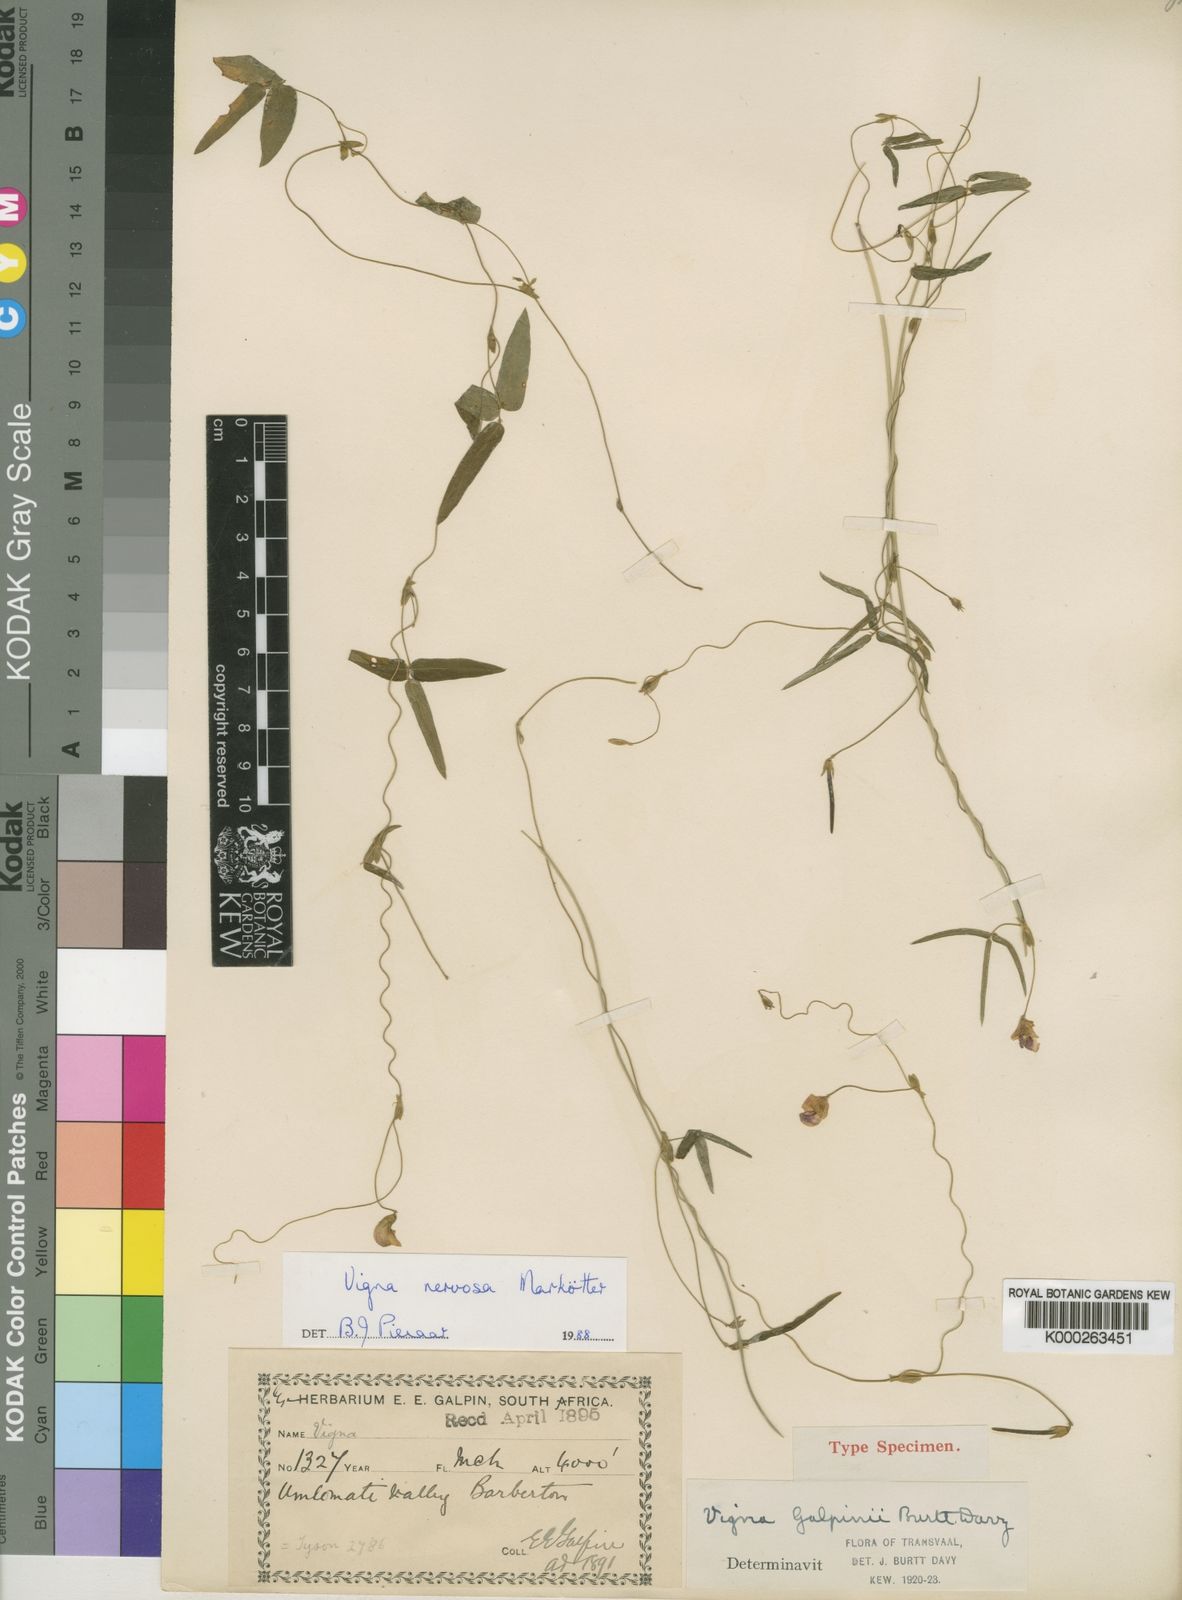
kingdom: Plantae
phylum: Tracheophyta
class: Magnoliopsida
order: Fabales
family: Fabaceae
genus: Vigna
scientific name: Vigna nervosa
